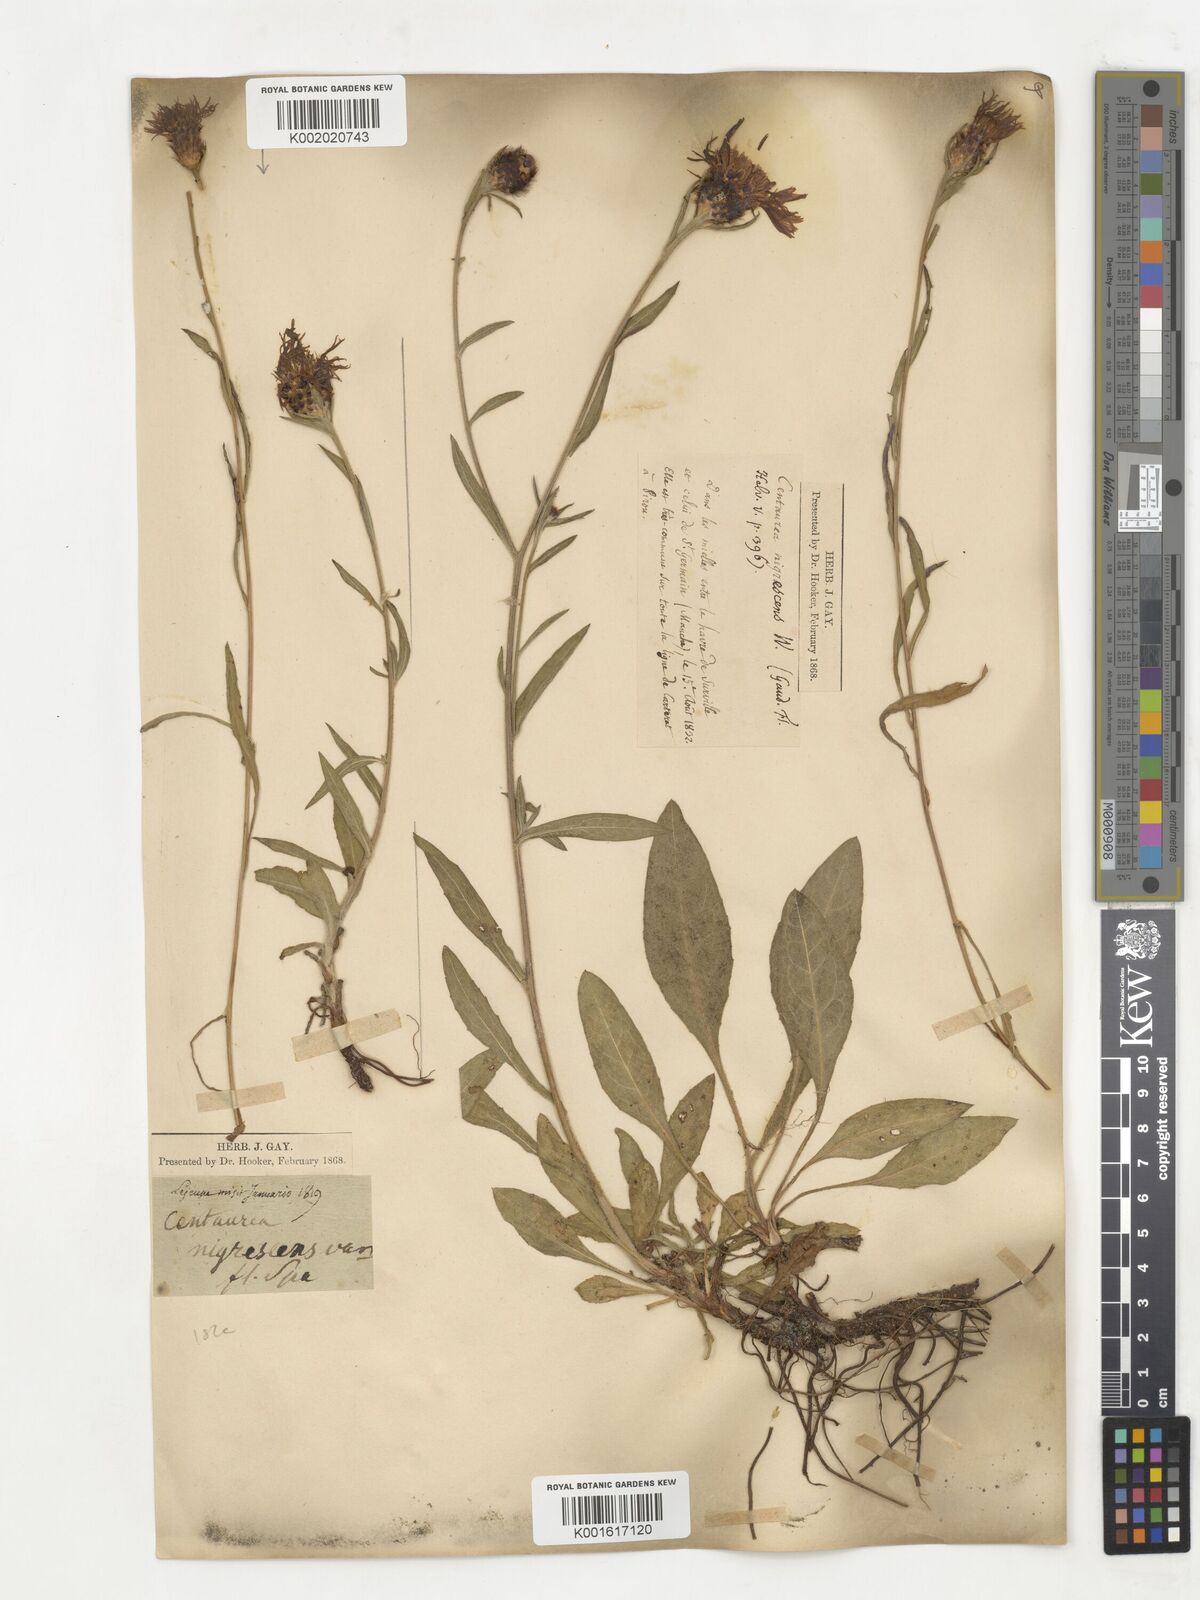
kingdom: Plantae
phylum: Tracheophyta
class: Magnoliopsida
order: Asterales
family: Asteraceae
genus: Centaurea
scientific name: Centaurea nigrescens
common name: Tyrol knapweed
